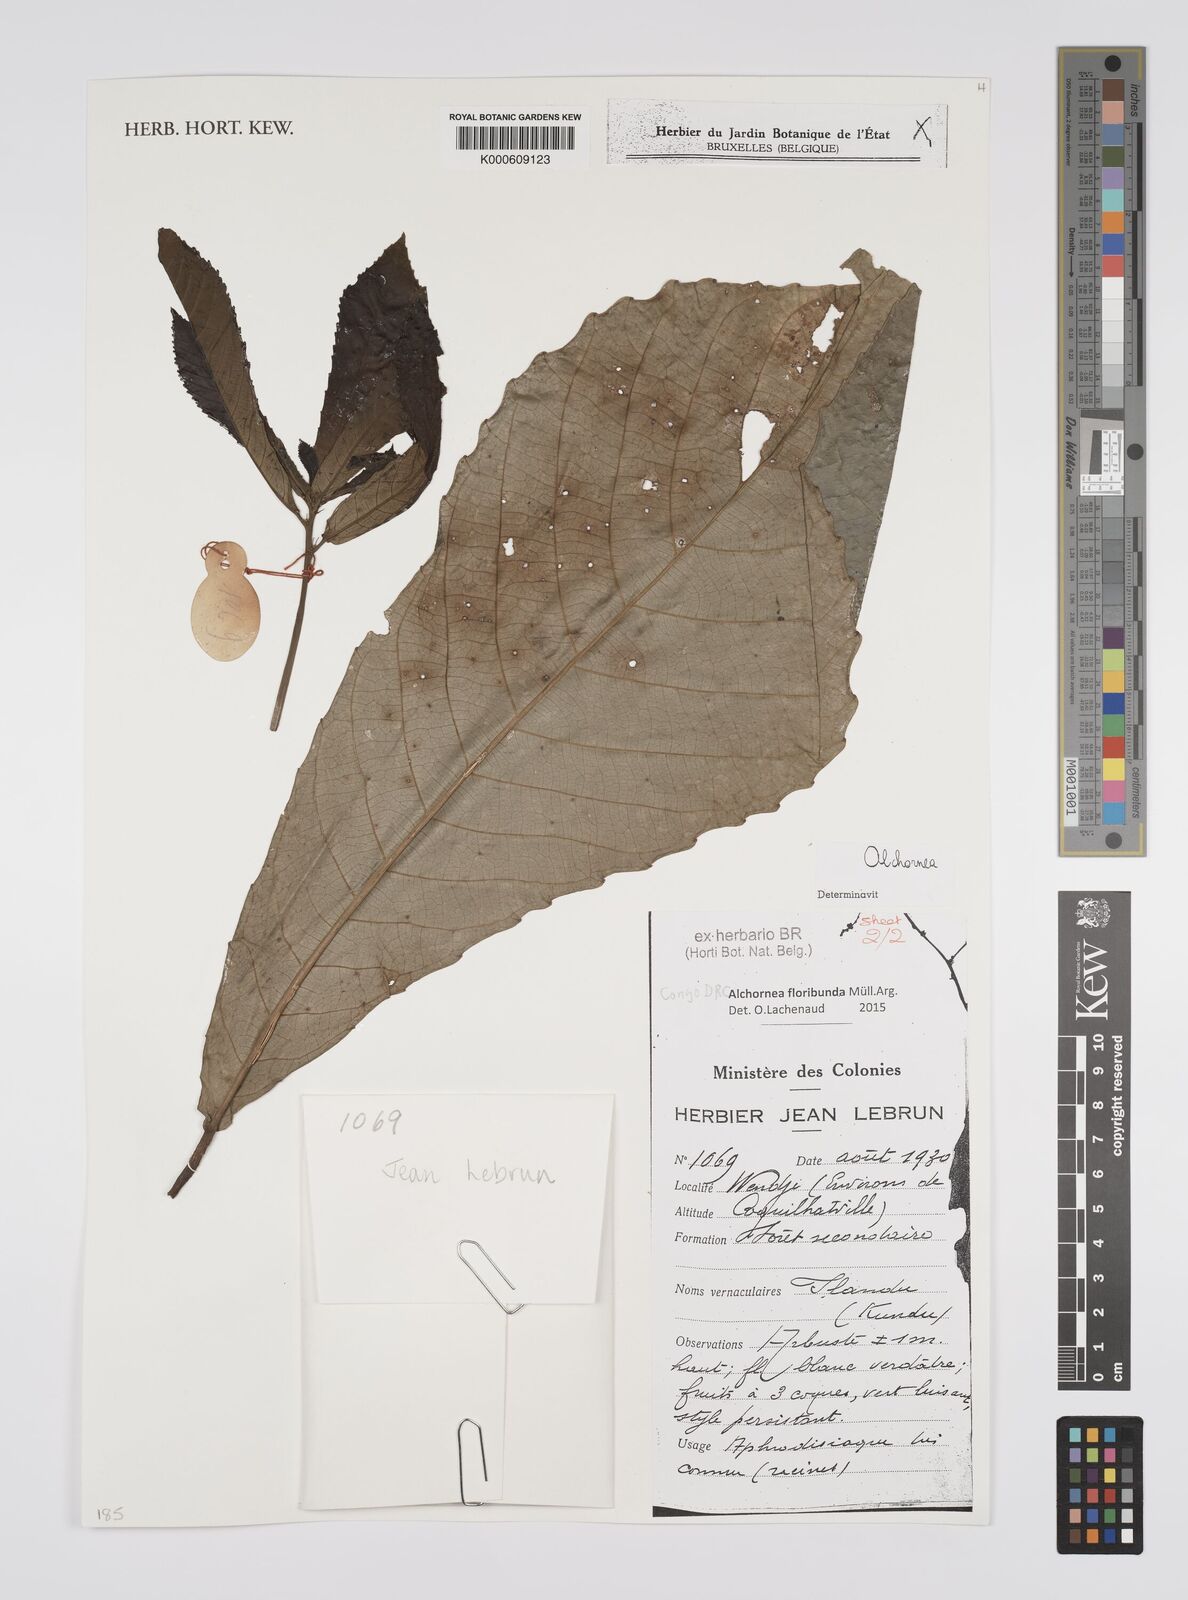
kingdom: Plantae
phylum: Tracheophyta
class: Magnoliopsida
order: Malpighiales
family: Euphorbiaceae
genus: Alchornea
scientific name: Alchornea
